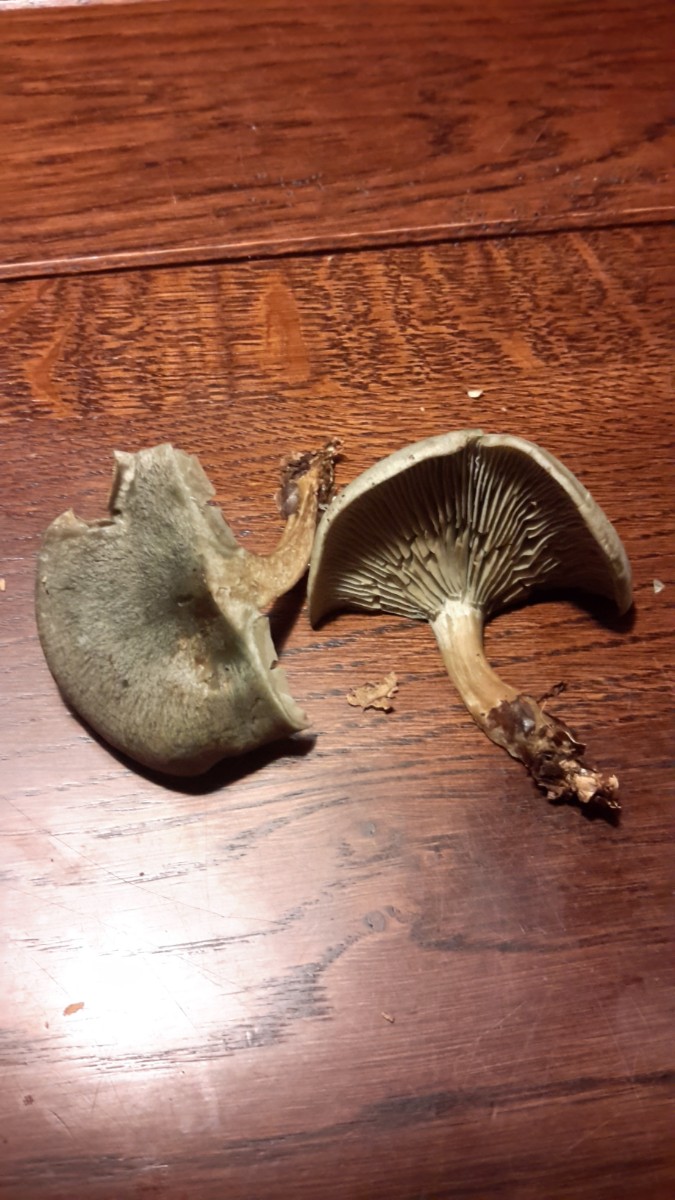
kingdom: Fungi
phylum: Basidiomycota
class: Agaricomycetes
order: Agaricales
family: Tricholomataceae
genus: Clitocybe
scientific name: Clitocybe odora
